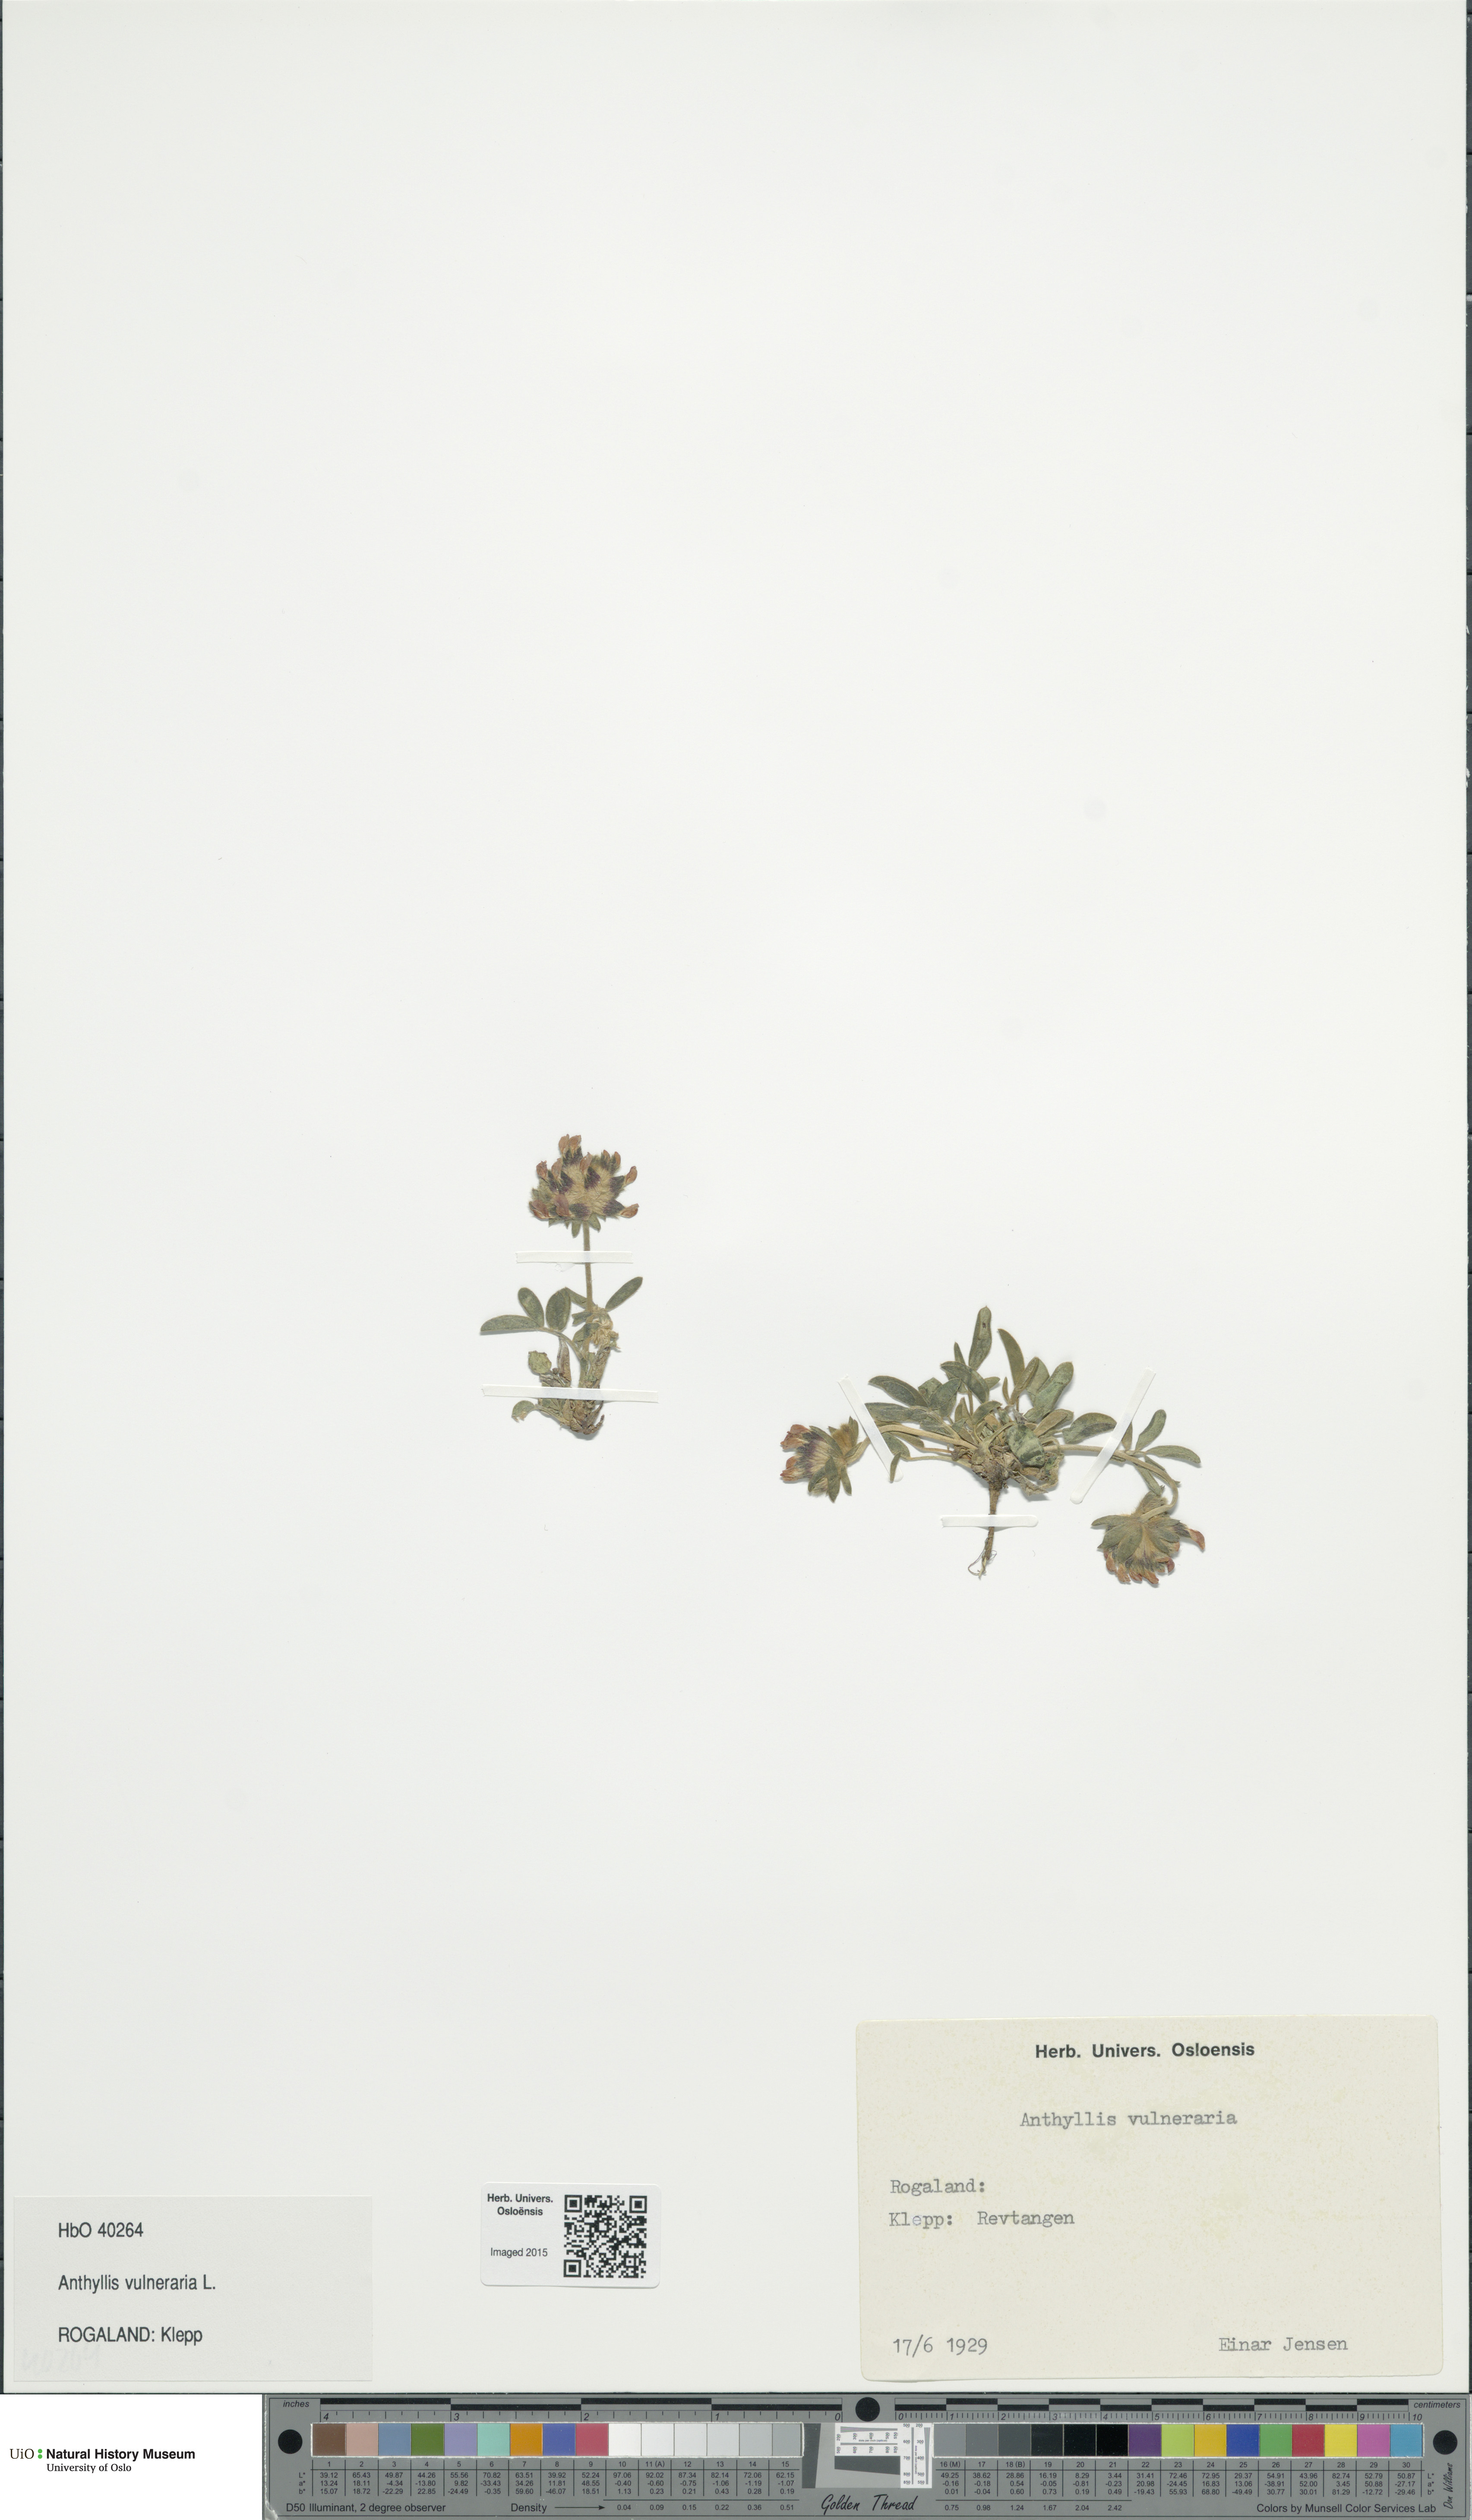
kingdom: Plantae
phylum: Tracheophyta
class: Magnoliopsida
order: Fabales
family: Fabaceae
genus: Anthyllis
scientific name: Anthyllis vulneraria
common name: Kidney vetch
